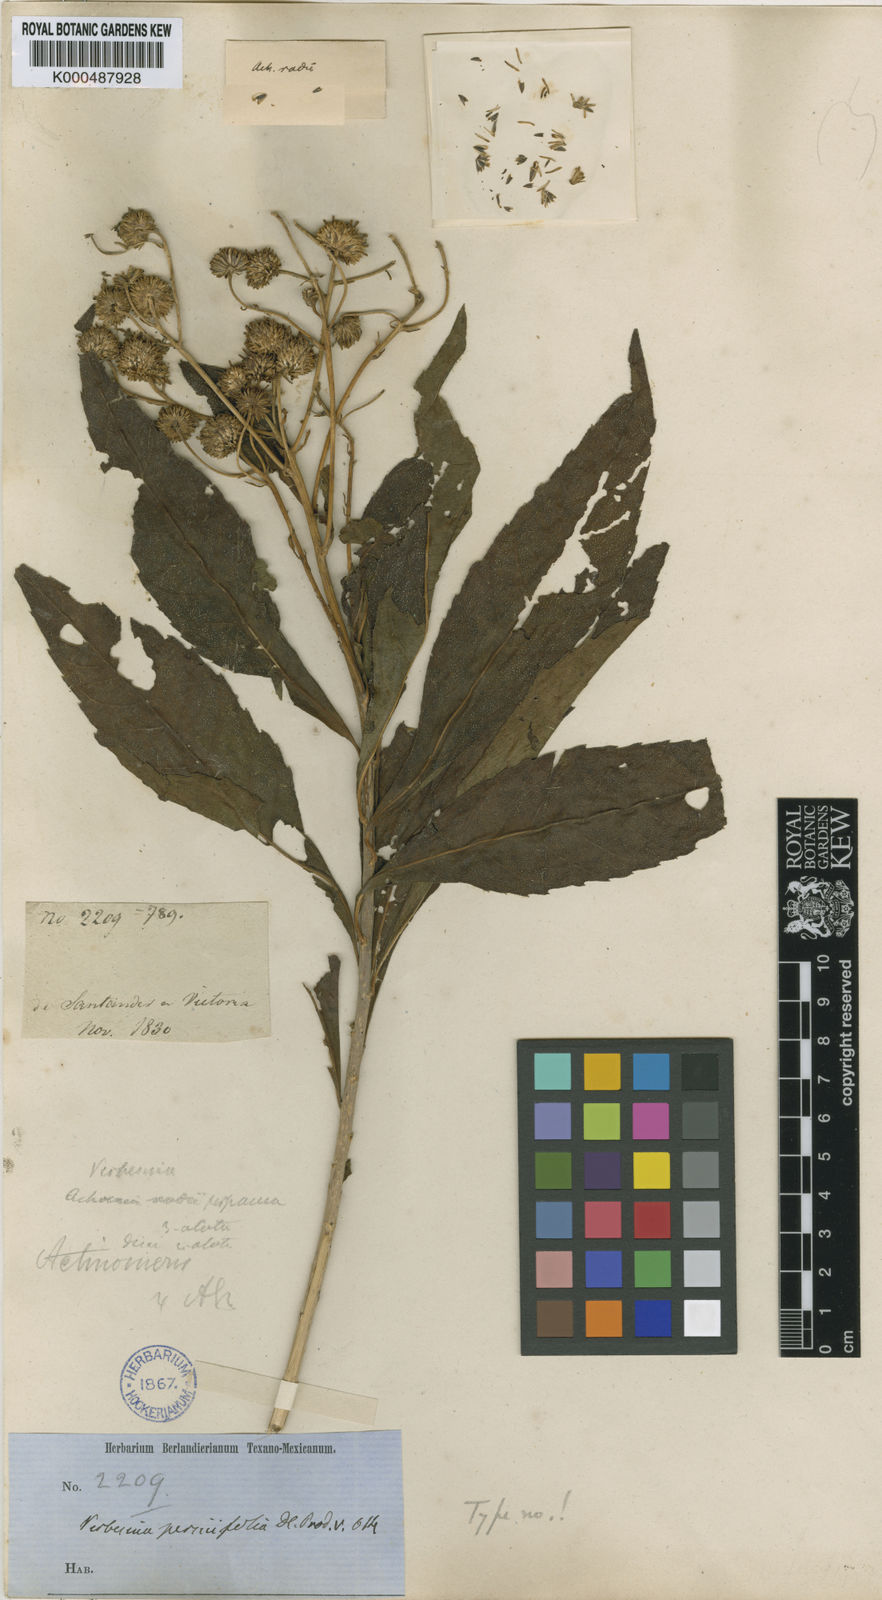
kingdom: Plantae
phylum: Tracheophyta
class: Magnoliopsida
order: Asterales
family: Asteraceae
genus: Verbesina
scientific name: Verbesina persicifolia
